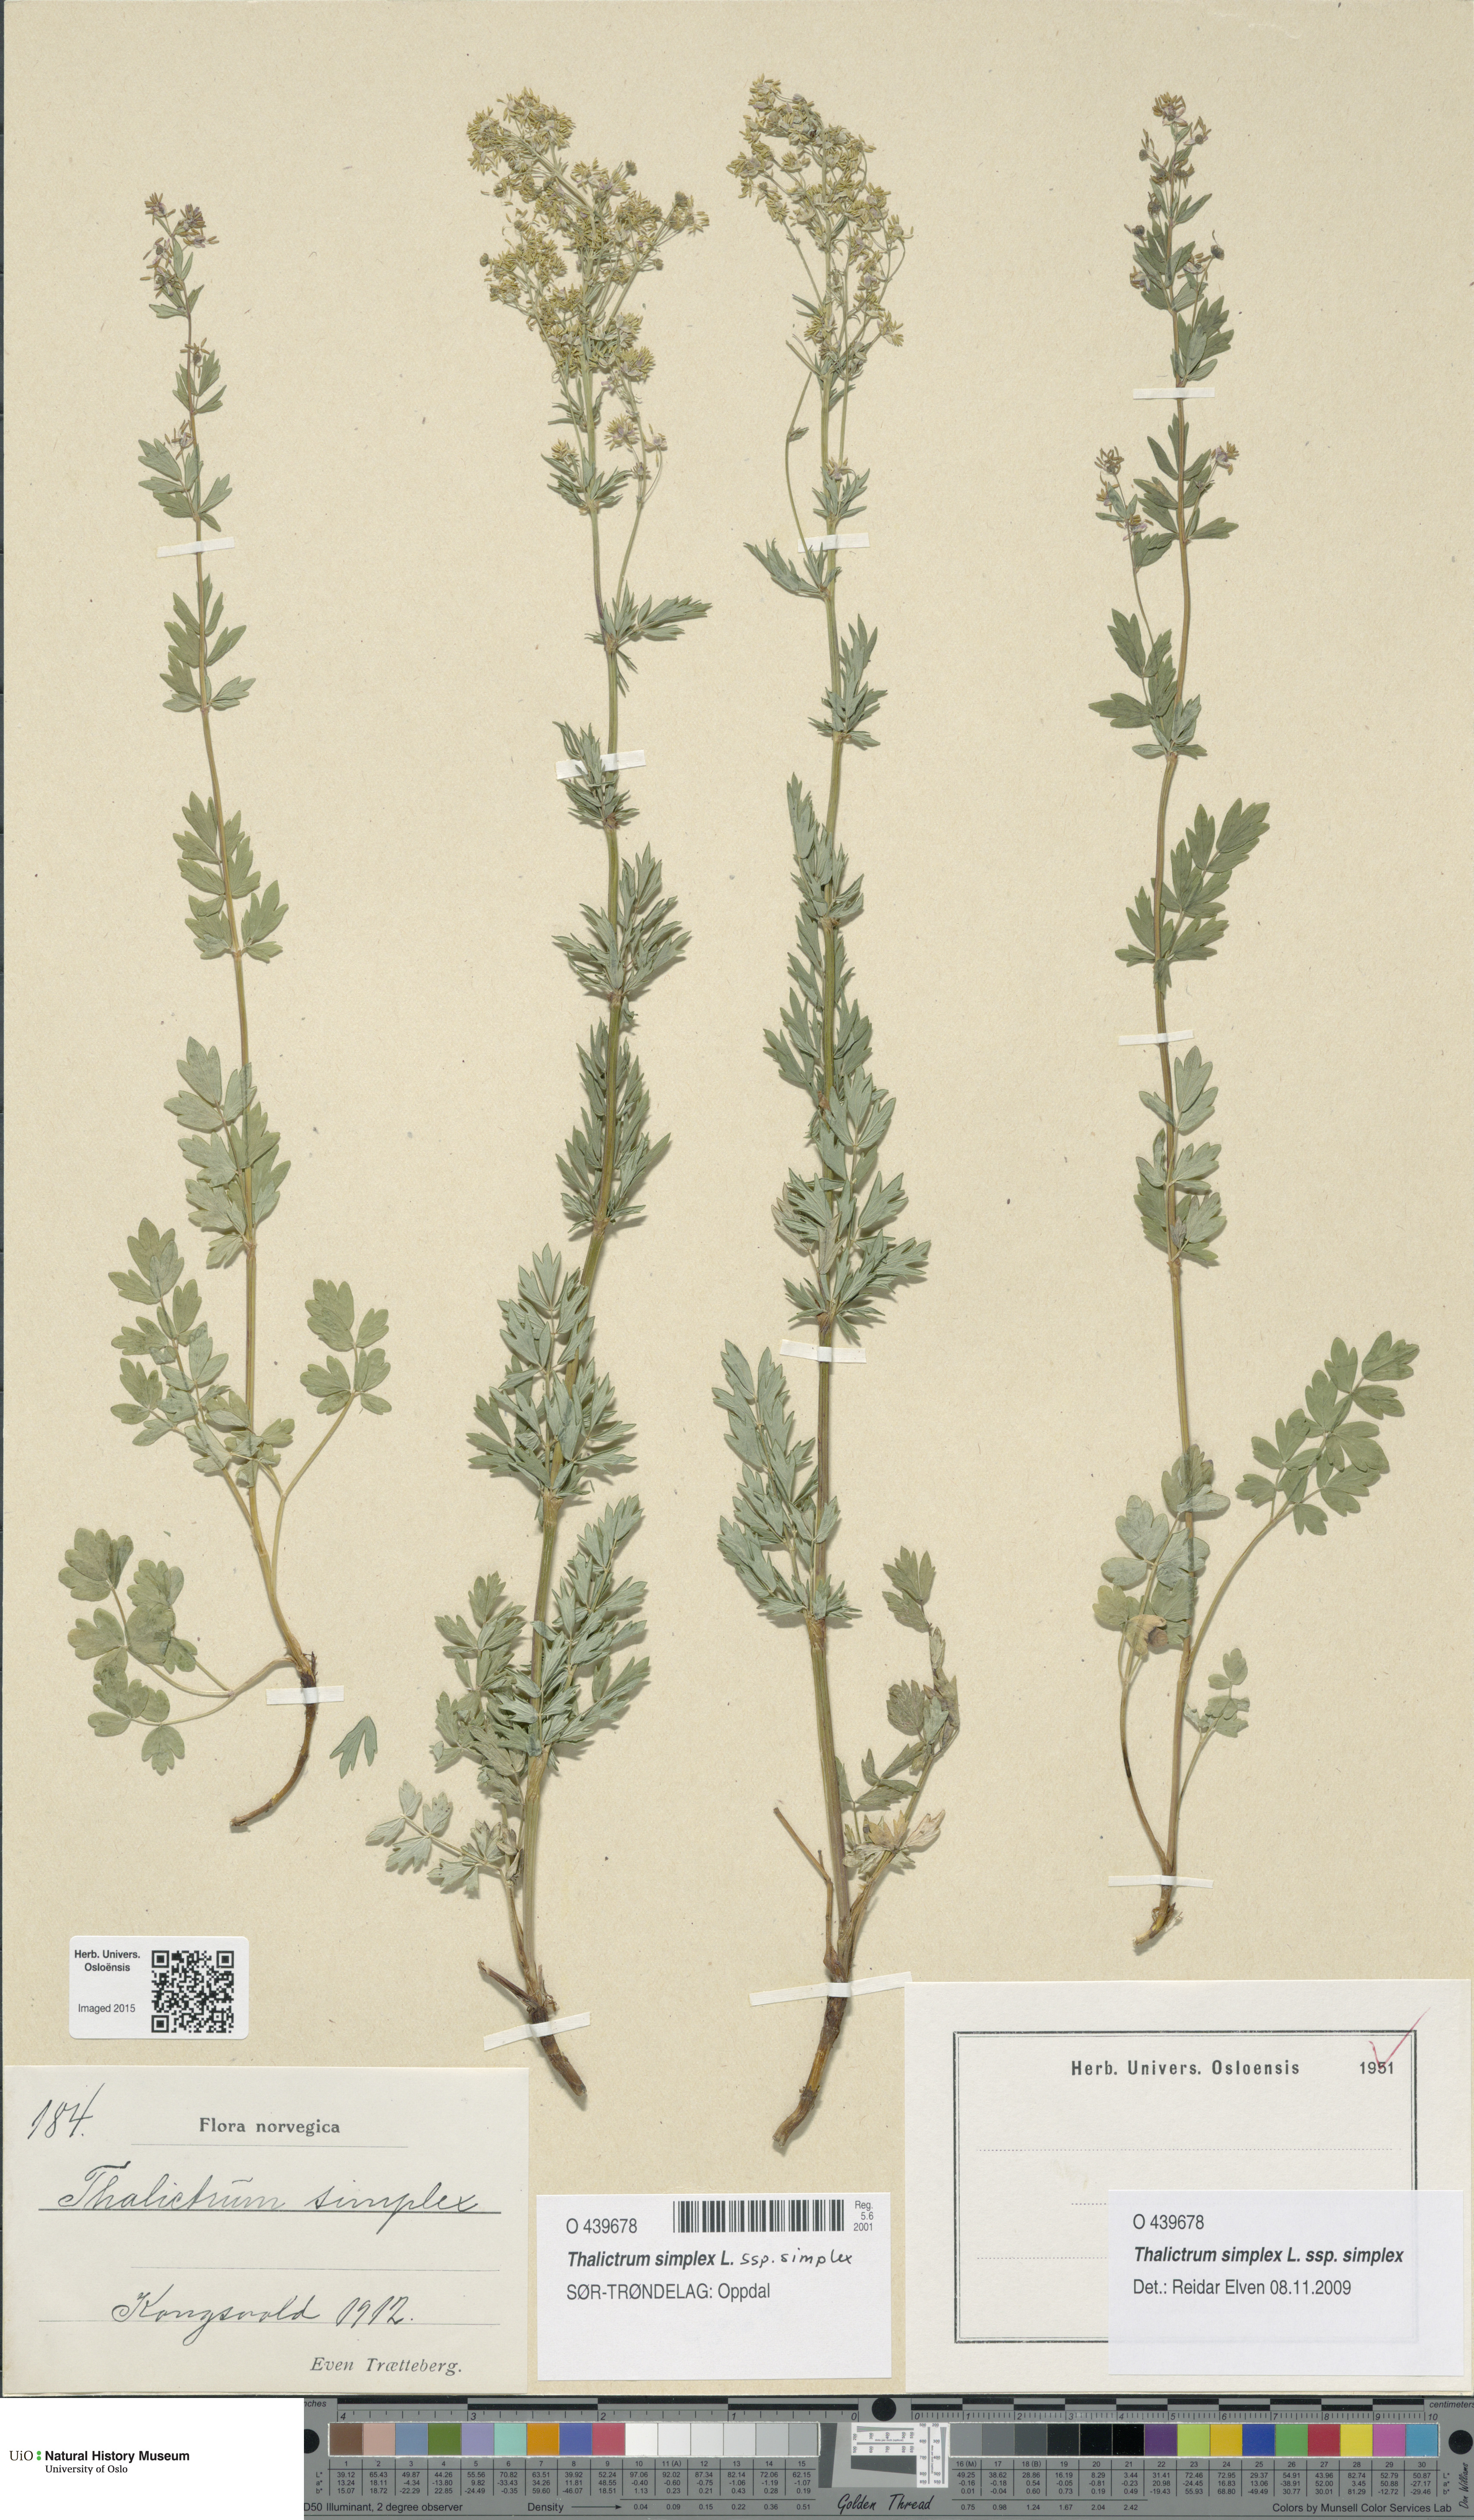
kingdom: Plantae
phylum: Tracheophyta
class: Magnoliopsida
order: Ranunculales
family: Ranunculaceae
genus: Thalictrum
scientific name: Thalictrum simplex
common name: Small meadow-rue
